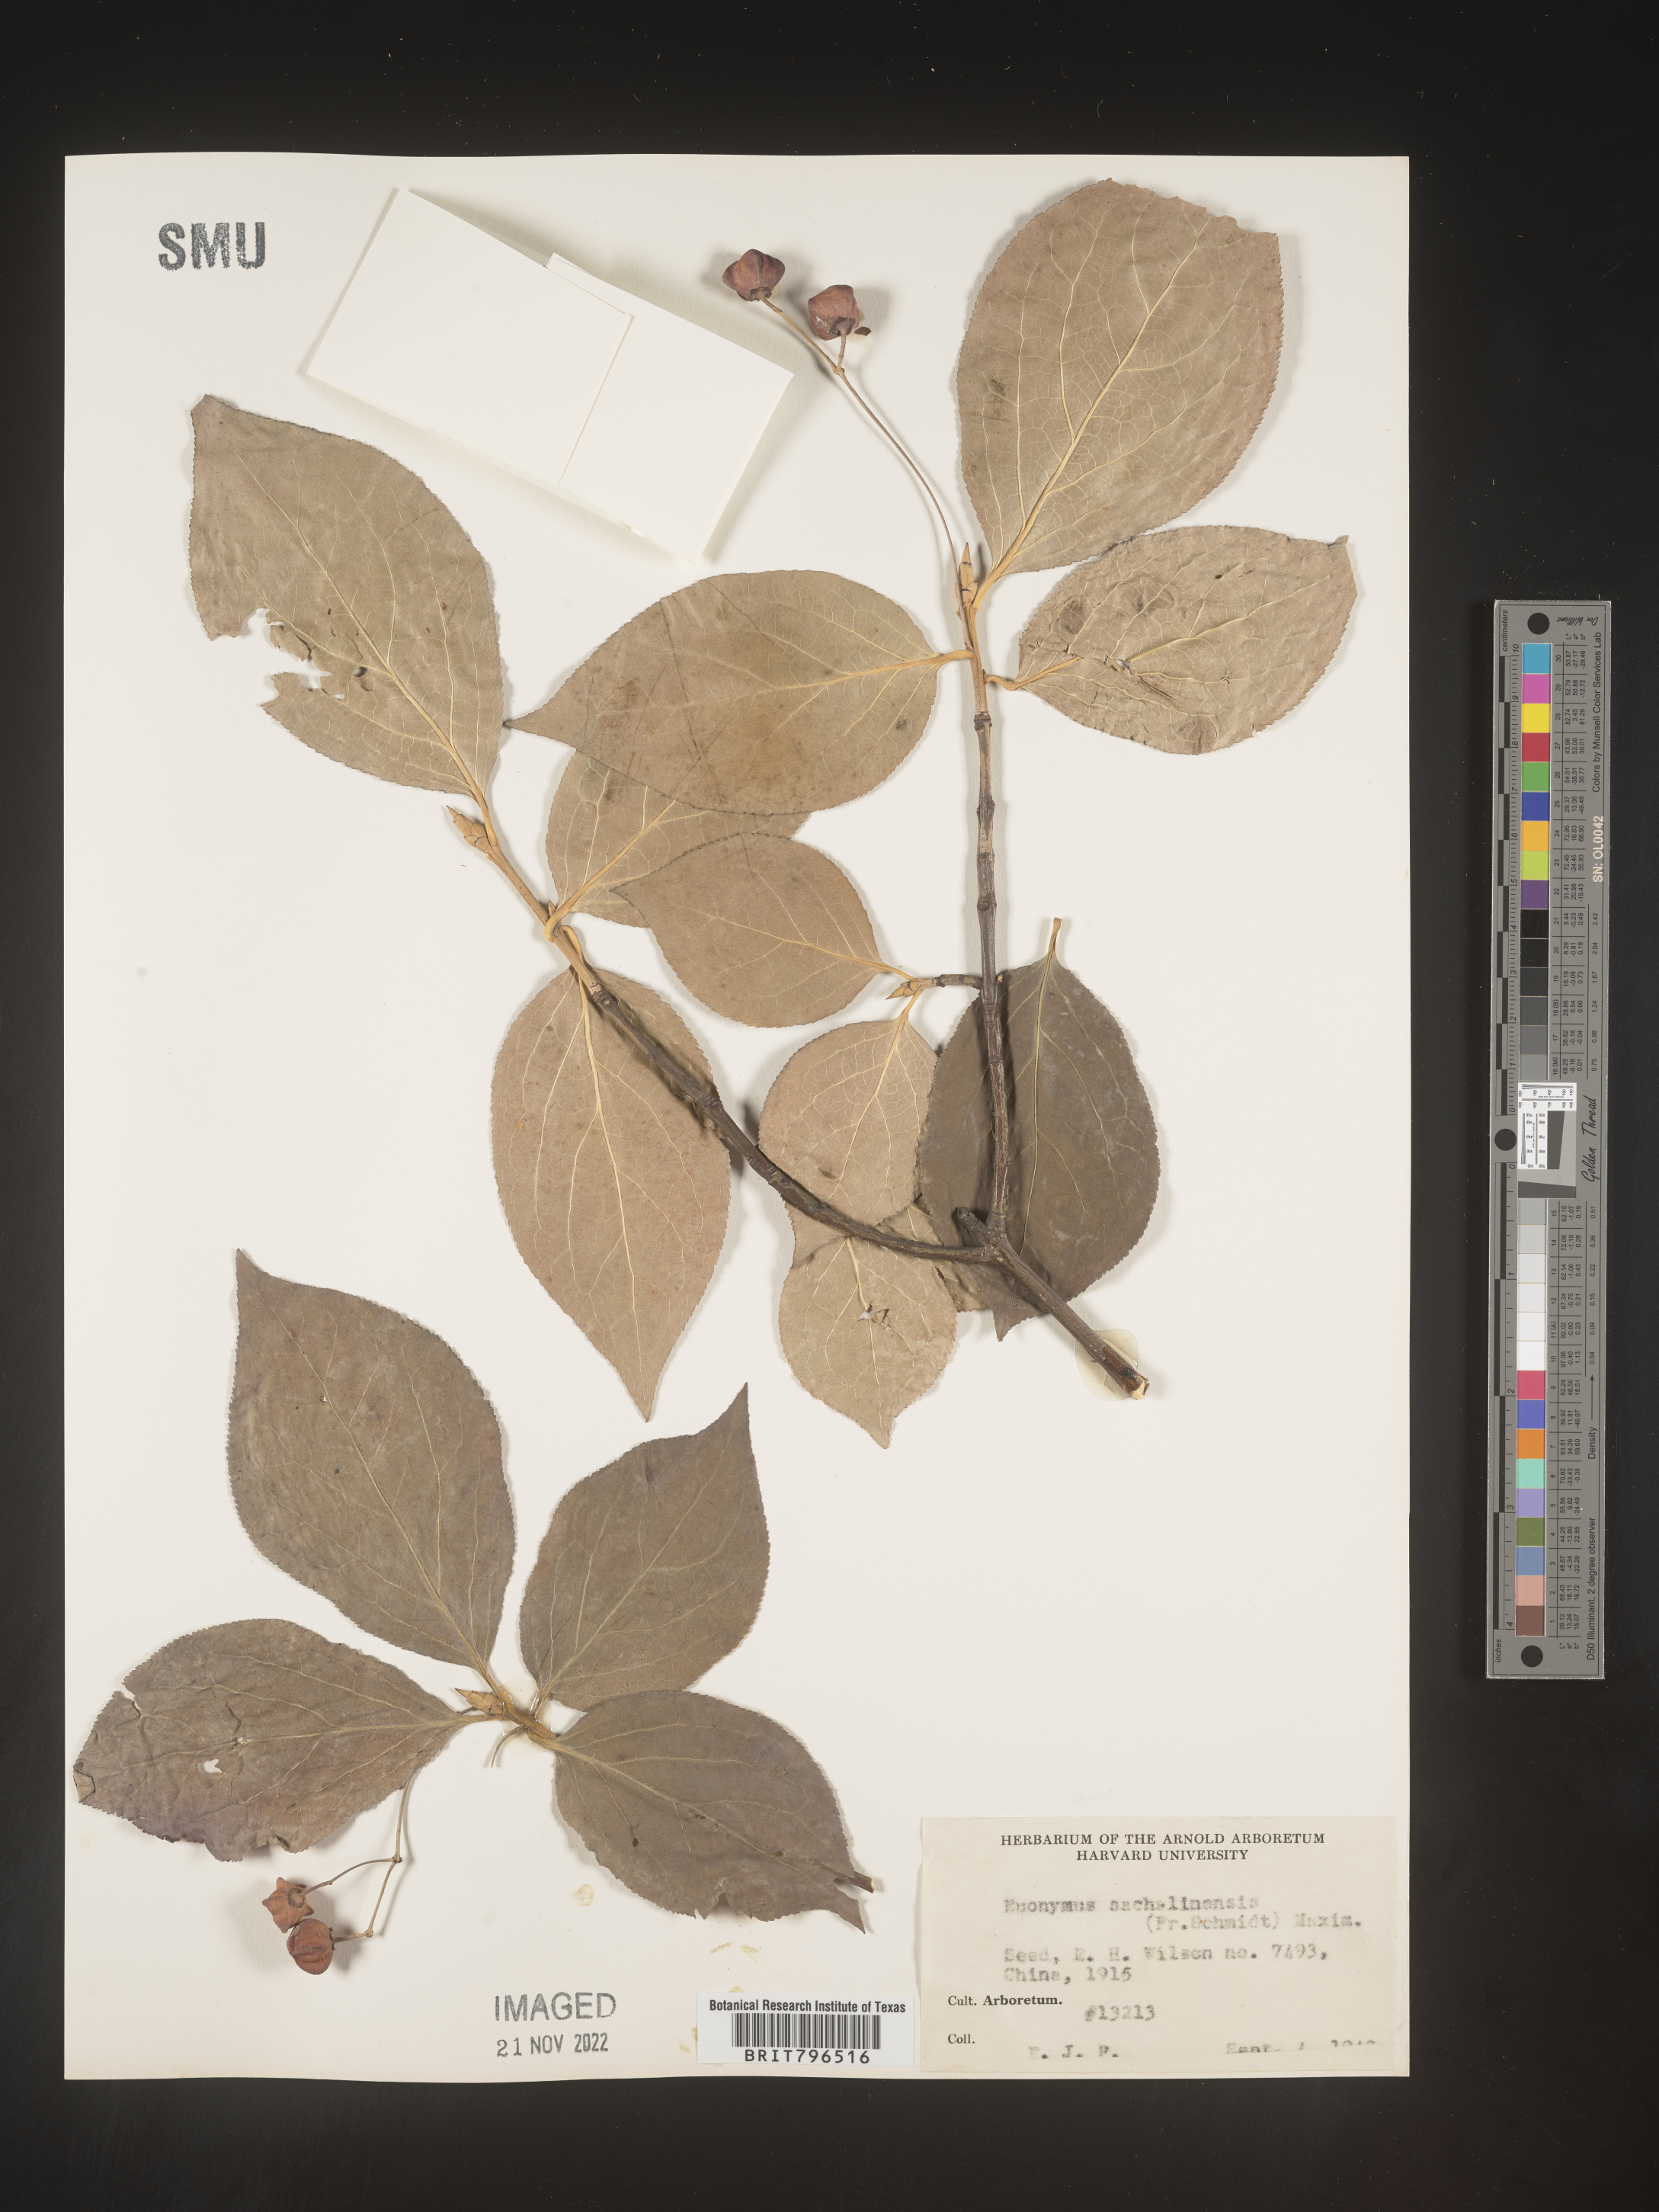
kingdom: Plantae
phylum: Tracheophyta
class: Magnoliopsida
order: Celastrales
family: Celastraceae
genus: Euonymus
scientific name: Euonymus
